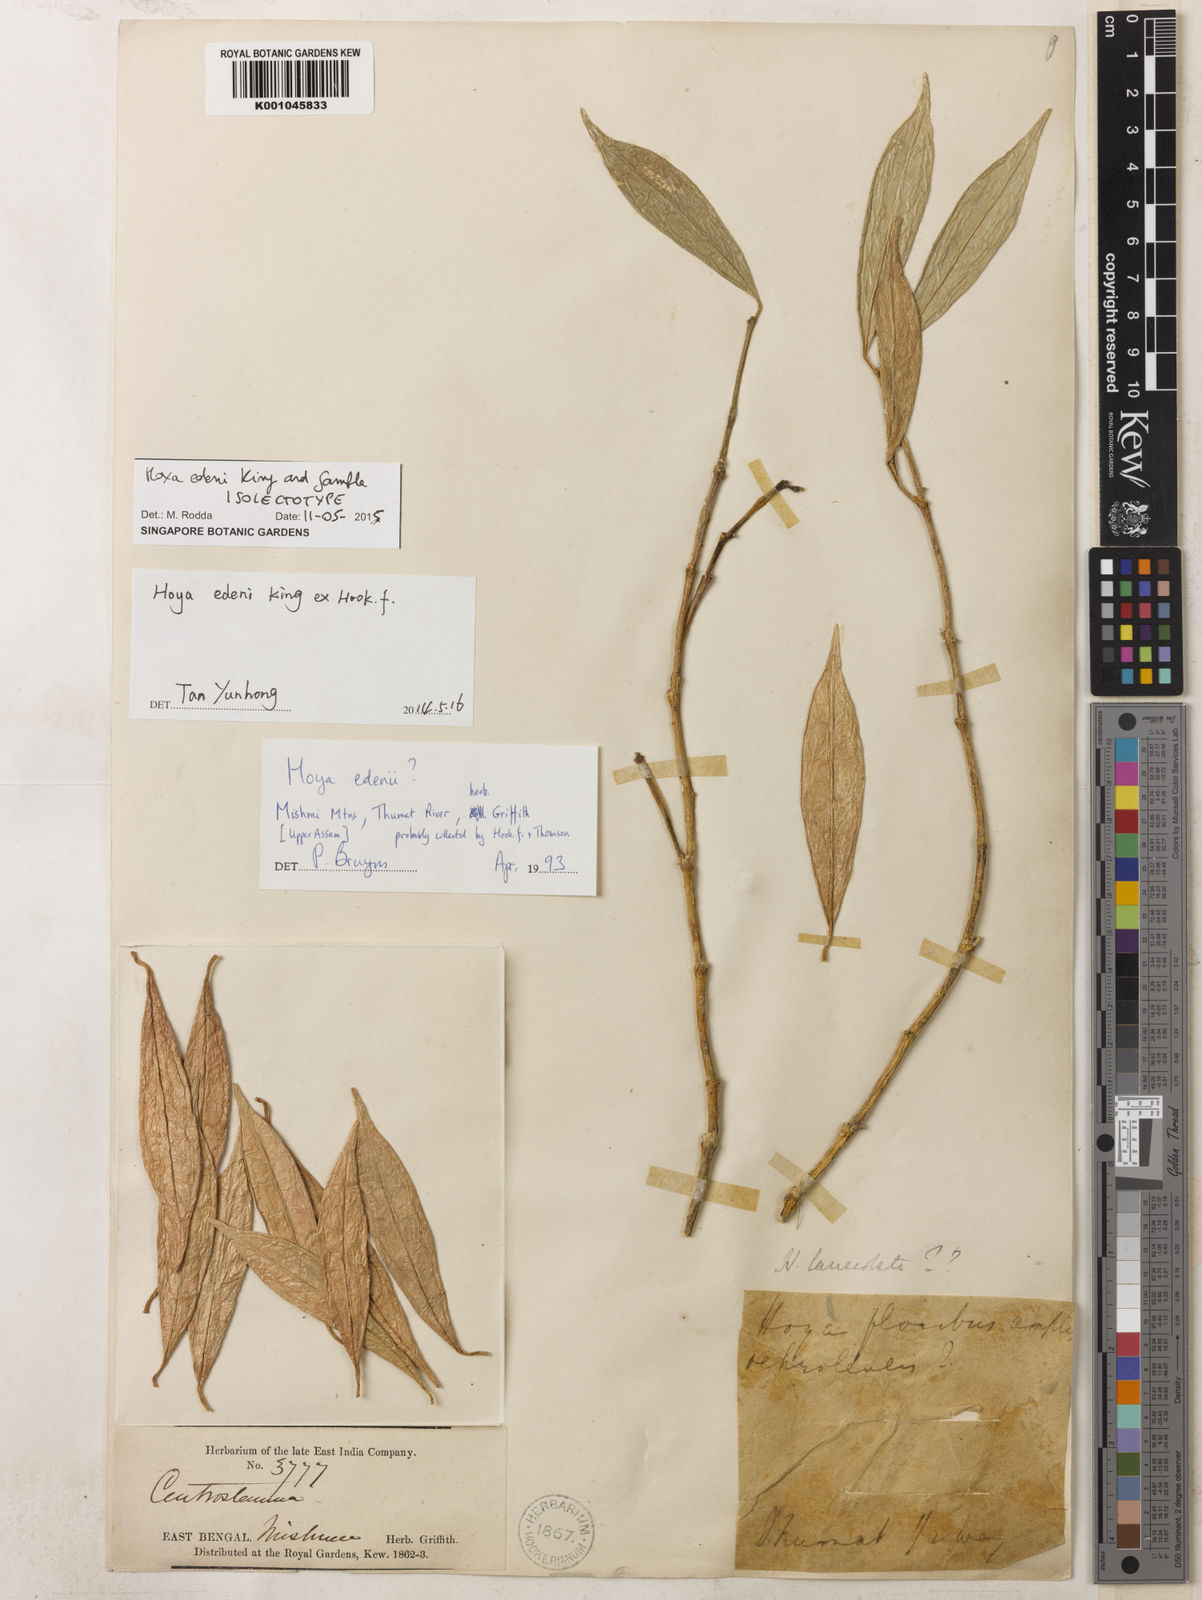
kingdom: Plantae
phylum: Tracheophyta
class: Magnoliopsida
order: Gentianales
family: Apocynaceae
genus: Hoya
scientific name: Hoya edeni
